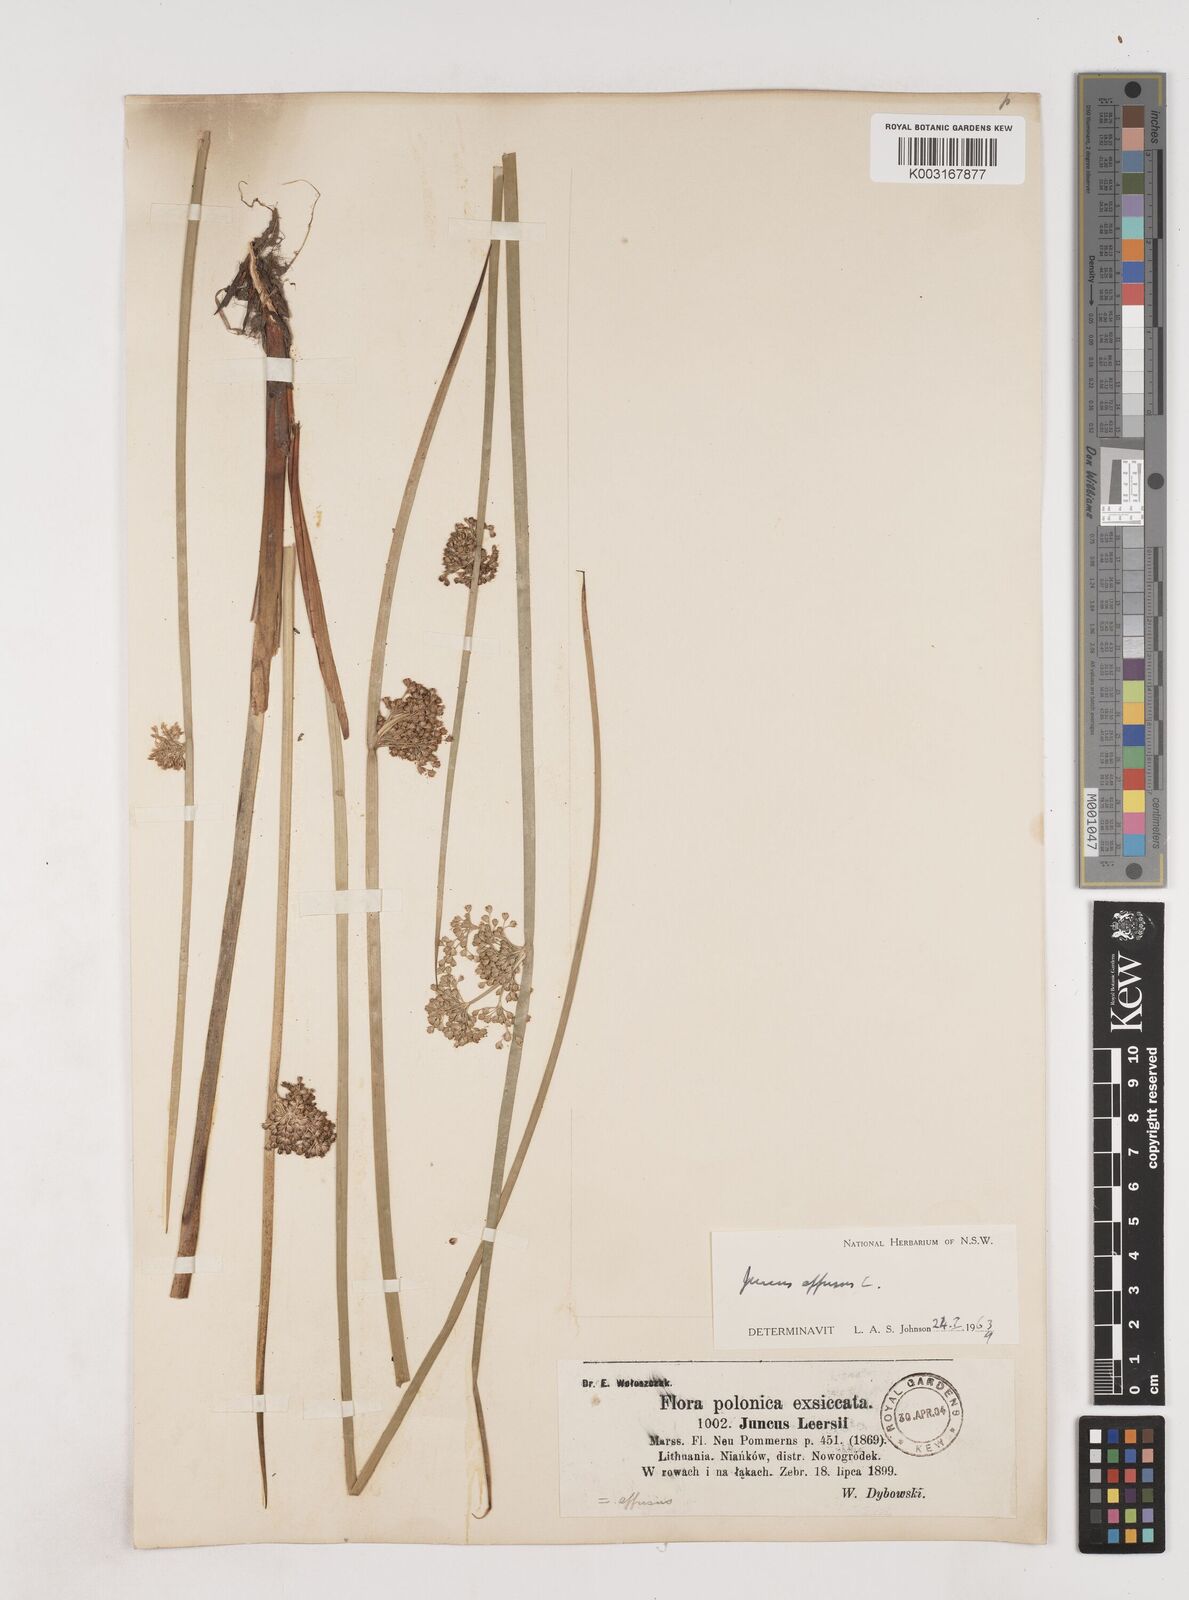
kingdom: Plantae
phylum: Tracheophyta
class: Liliopsida
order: Poales
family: Juncaceae
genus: Juncus
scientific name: Juncus effusus
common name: Soft rush
